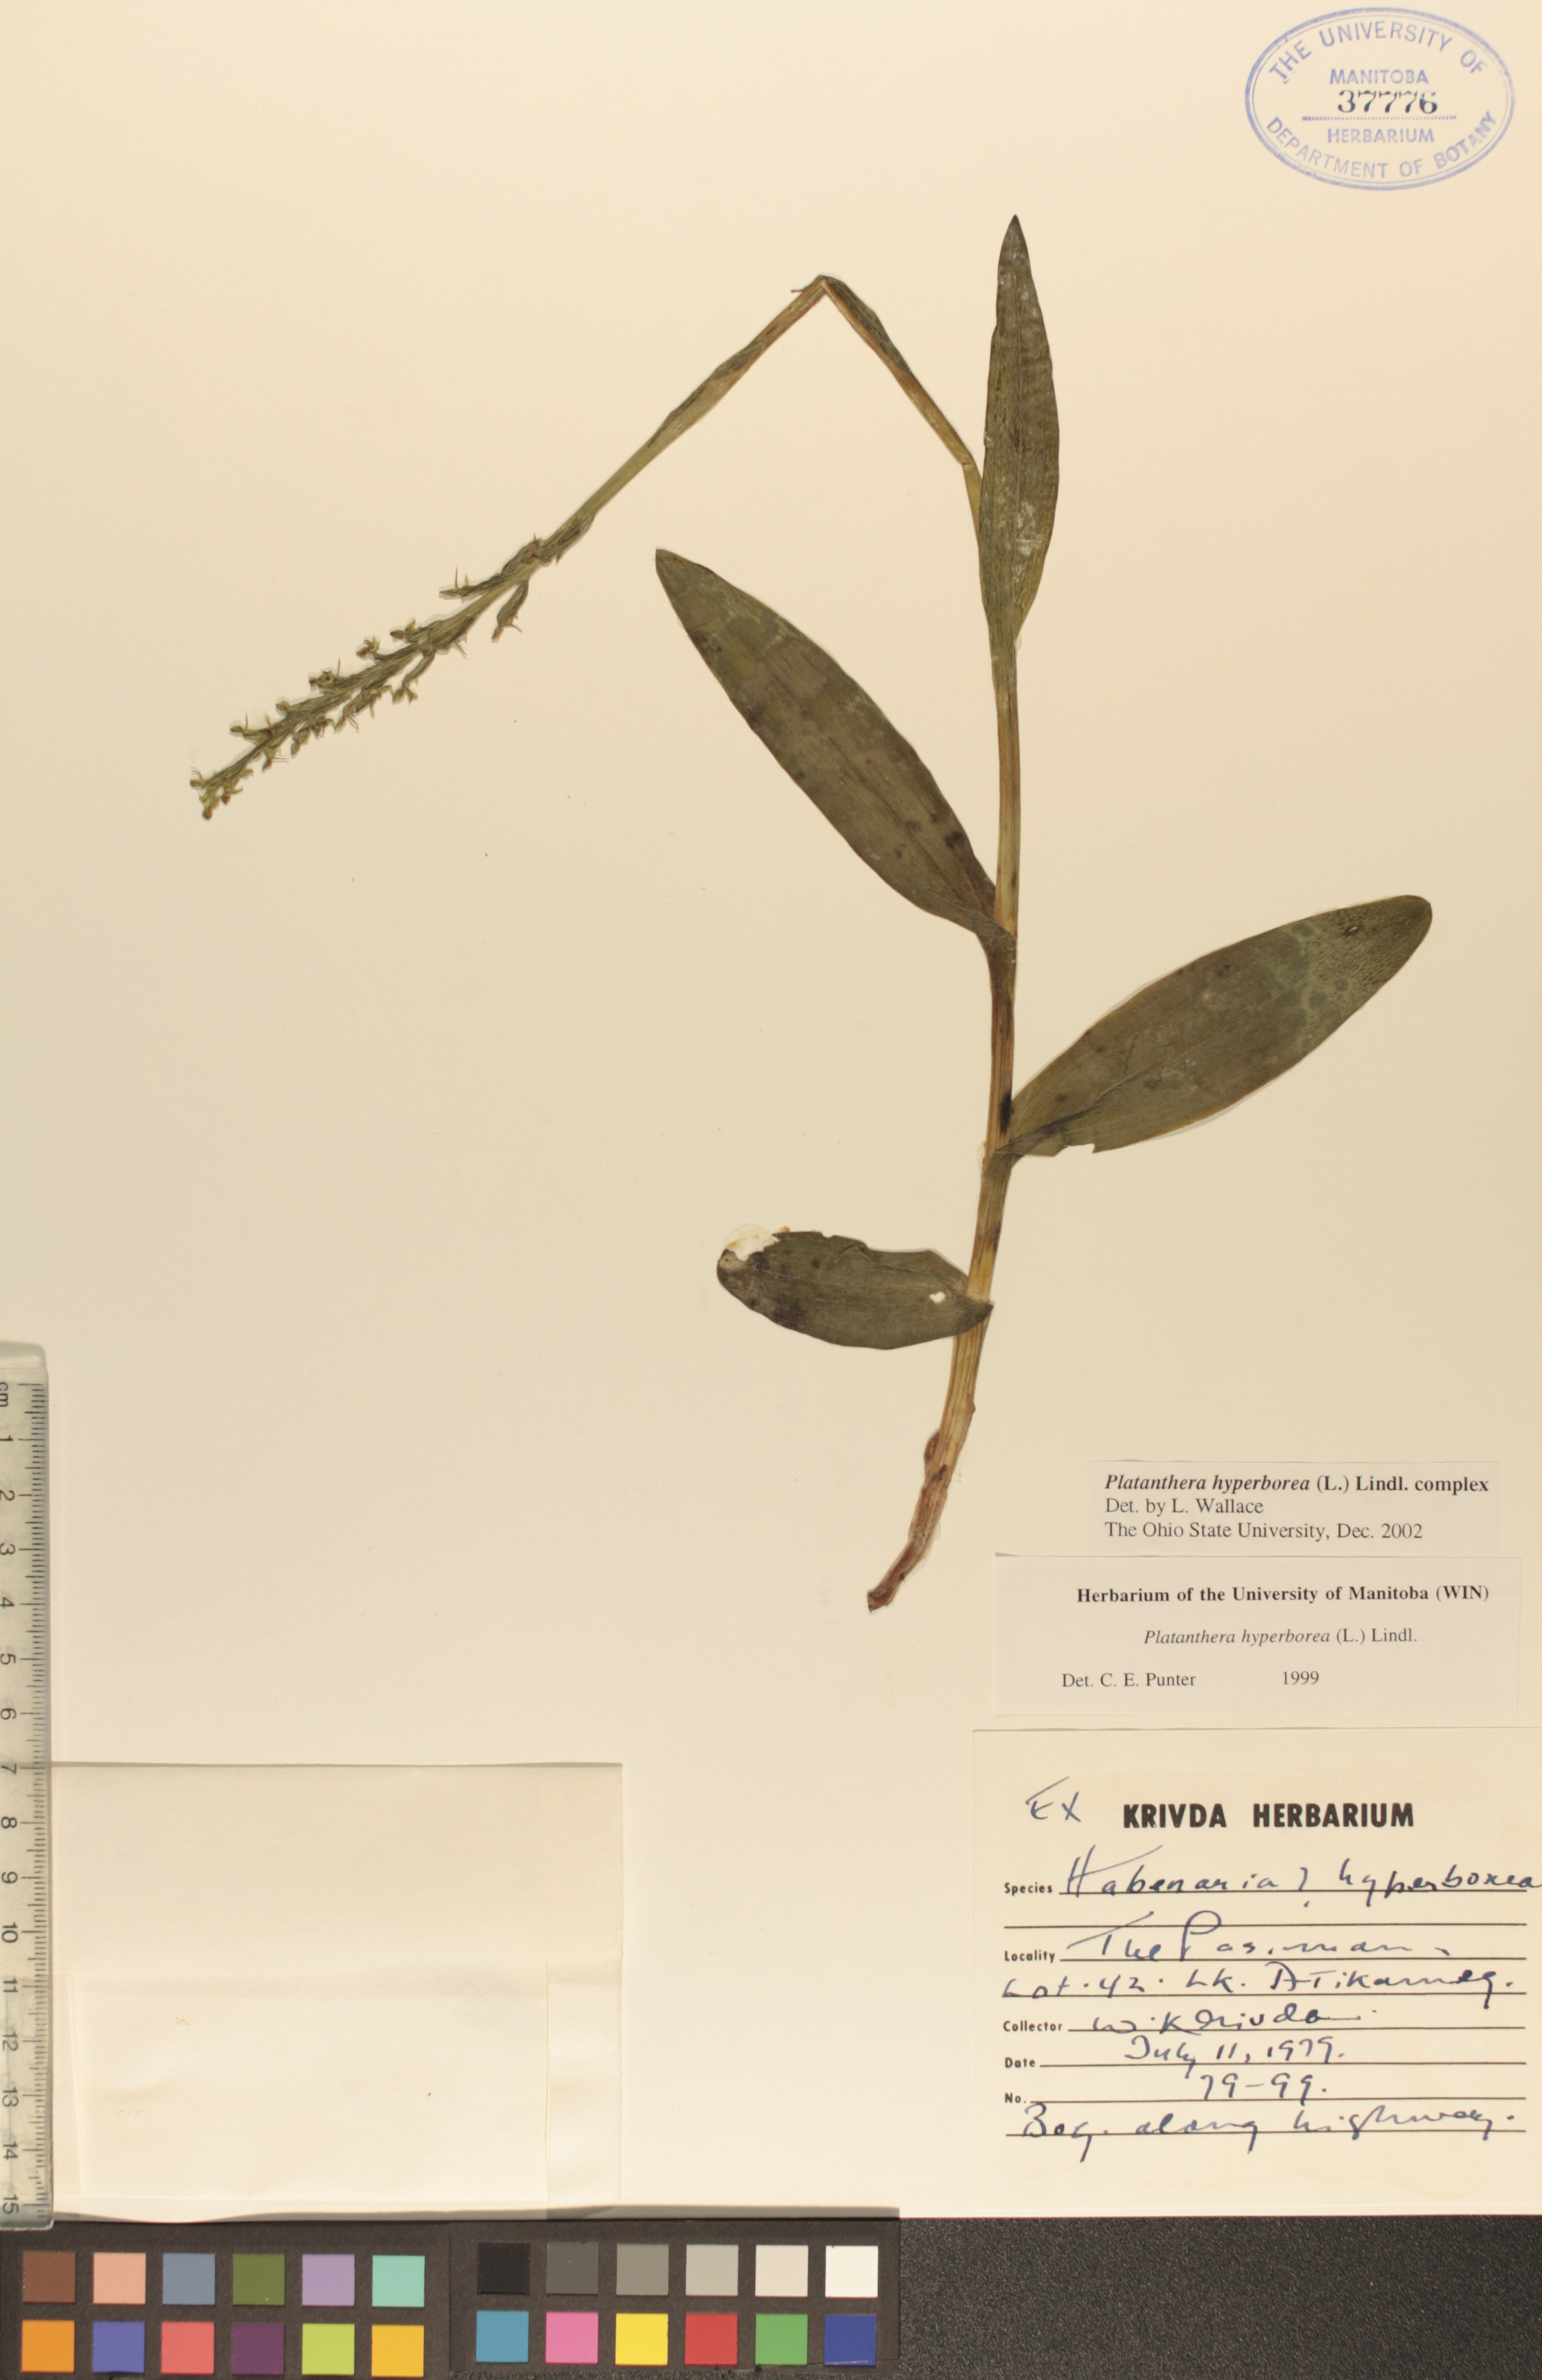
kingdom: Plantae
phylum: Tracheophyta
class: Liliopsida
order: Asparagales
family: Orchidaceae
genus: Platanthera
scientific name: Platanthera hyperborea
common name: Northern green orchid
